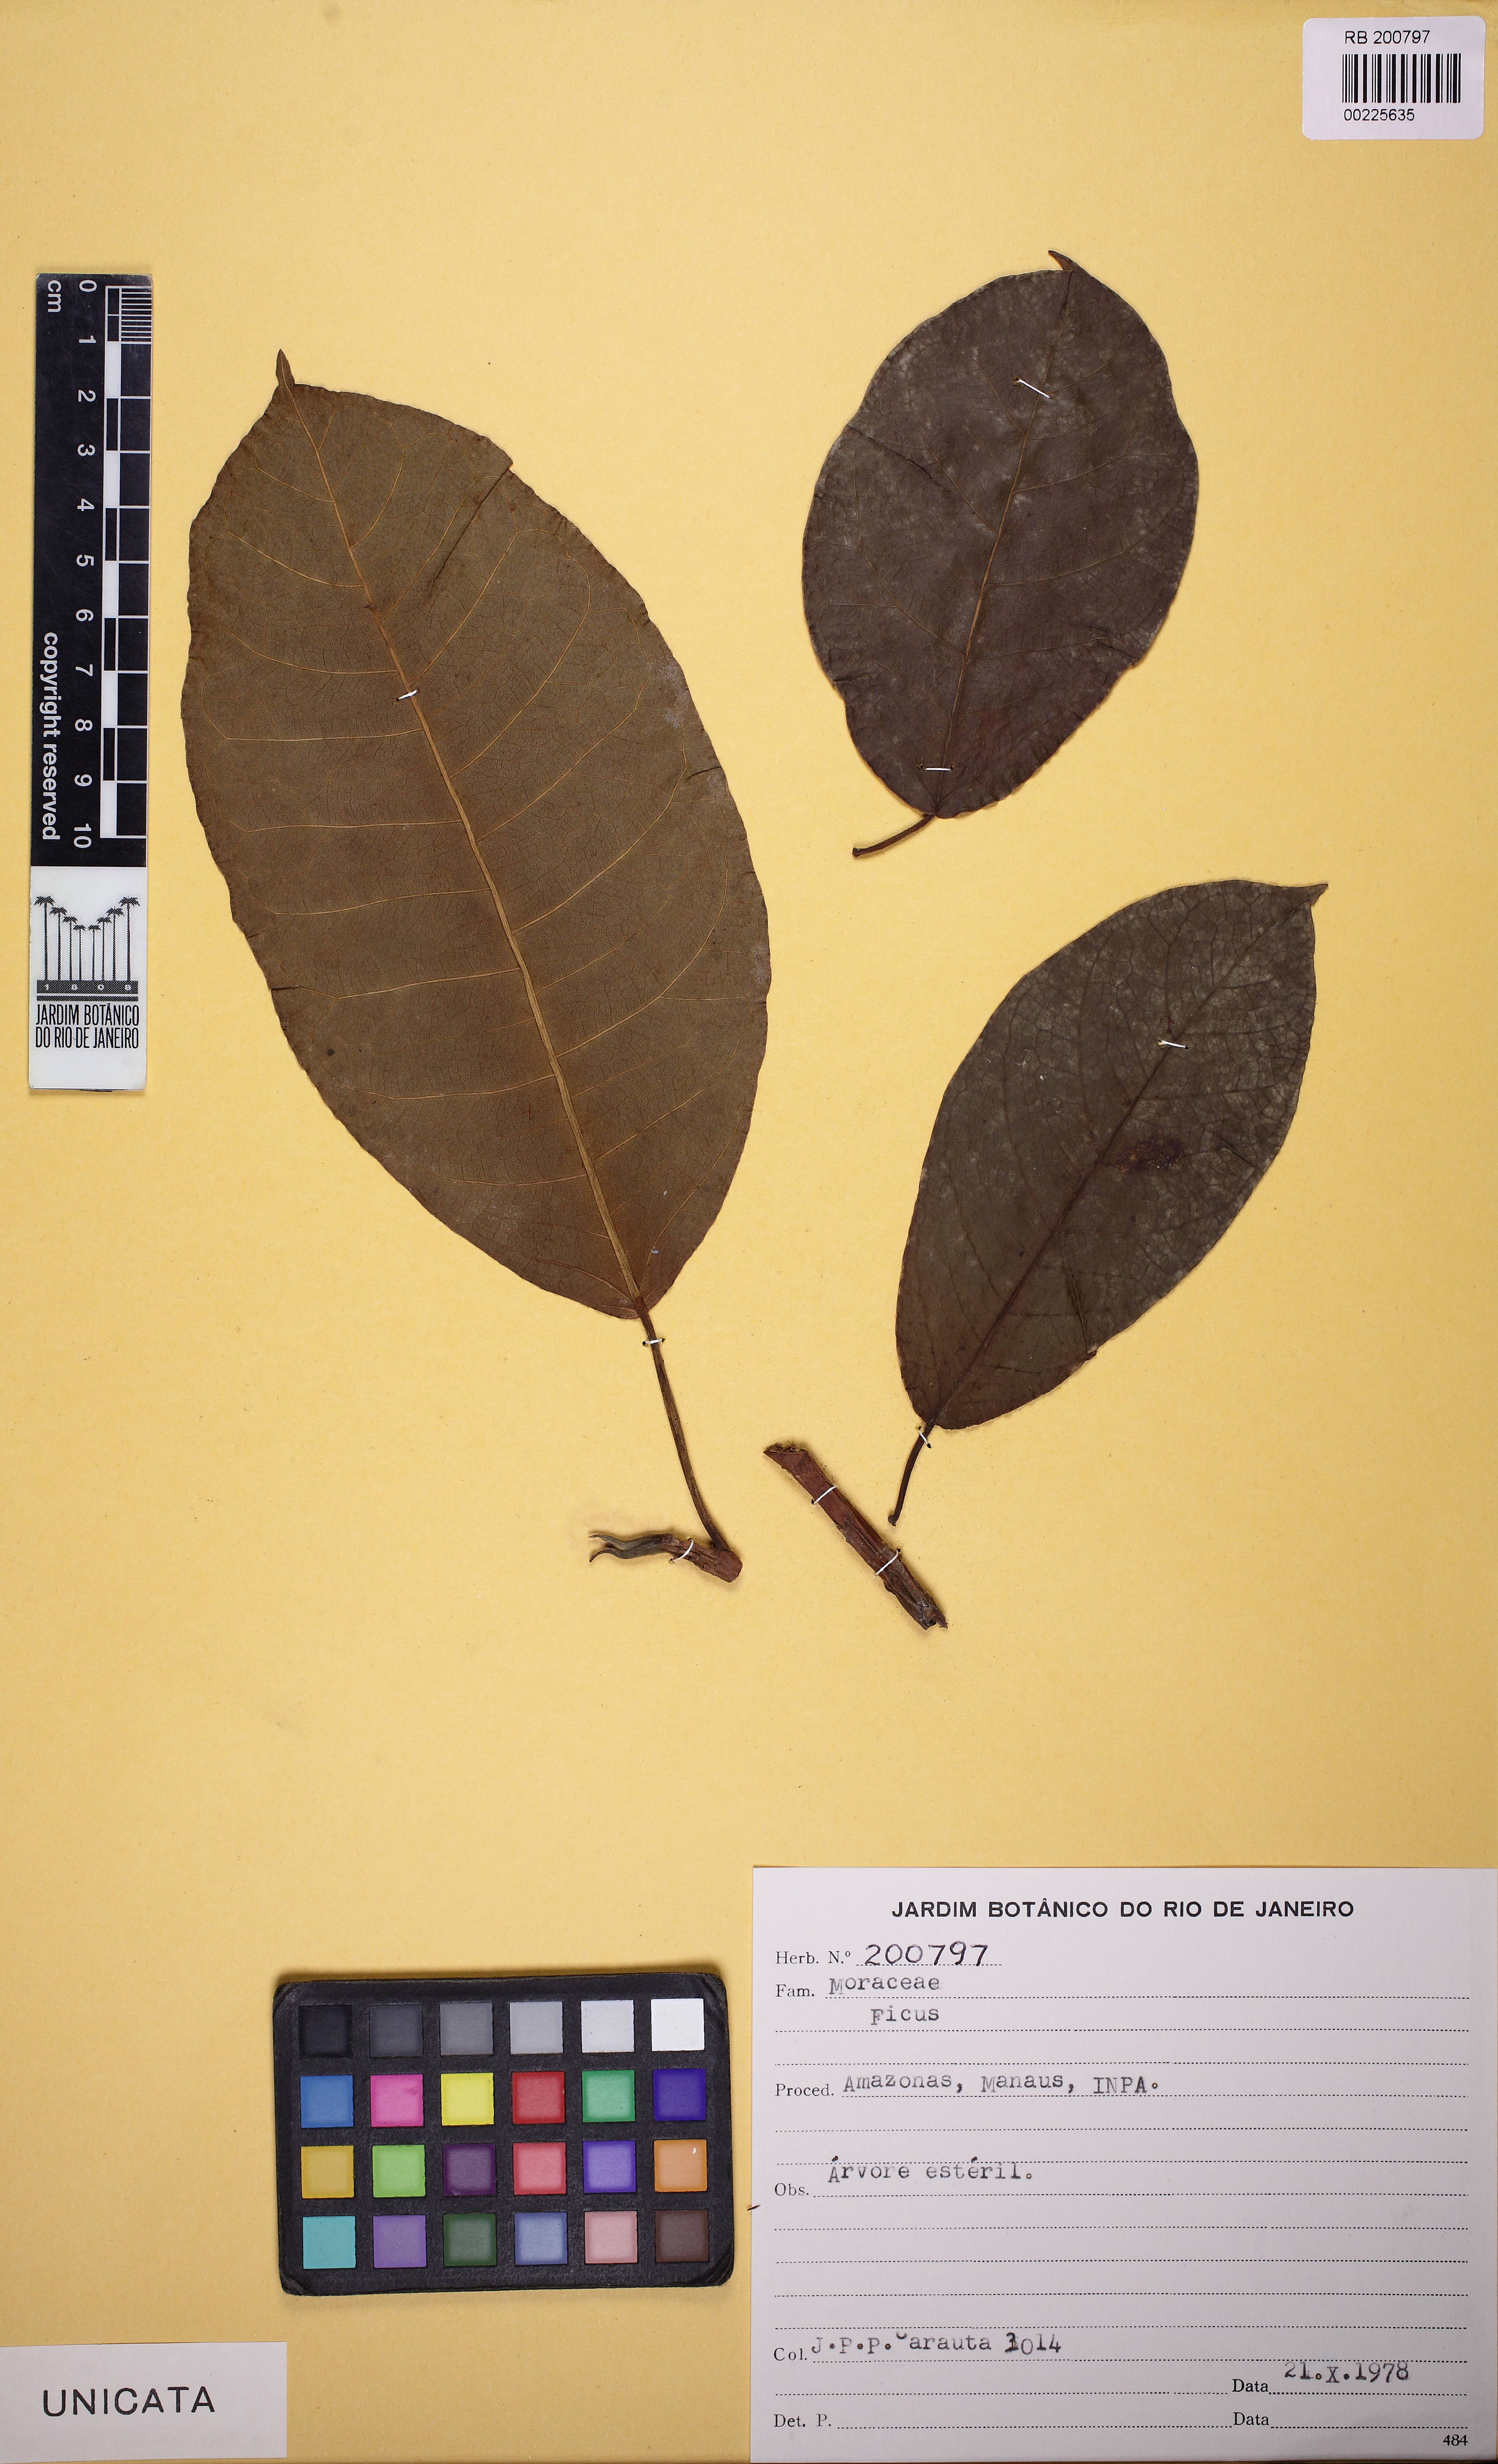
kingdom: Plantae
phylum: Tracheophyta
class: Magnoliopsida
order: Rosales
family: Moraceae
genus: Ficus
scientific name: Ficus
